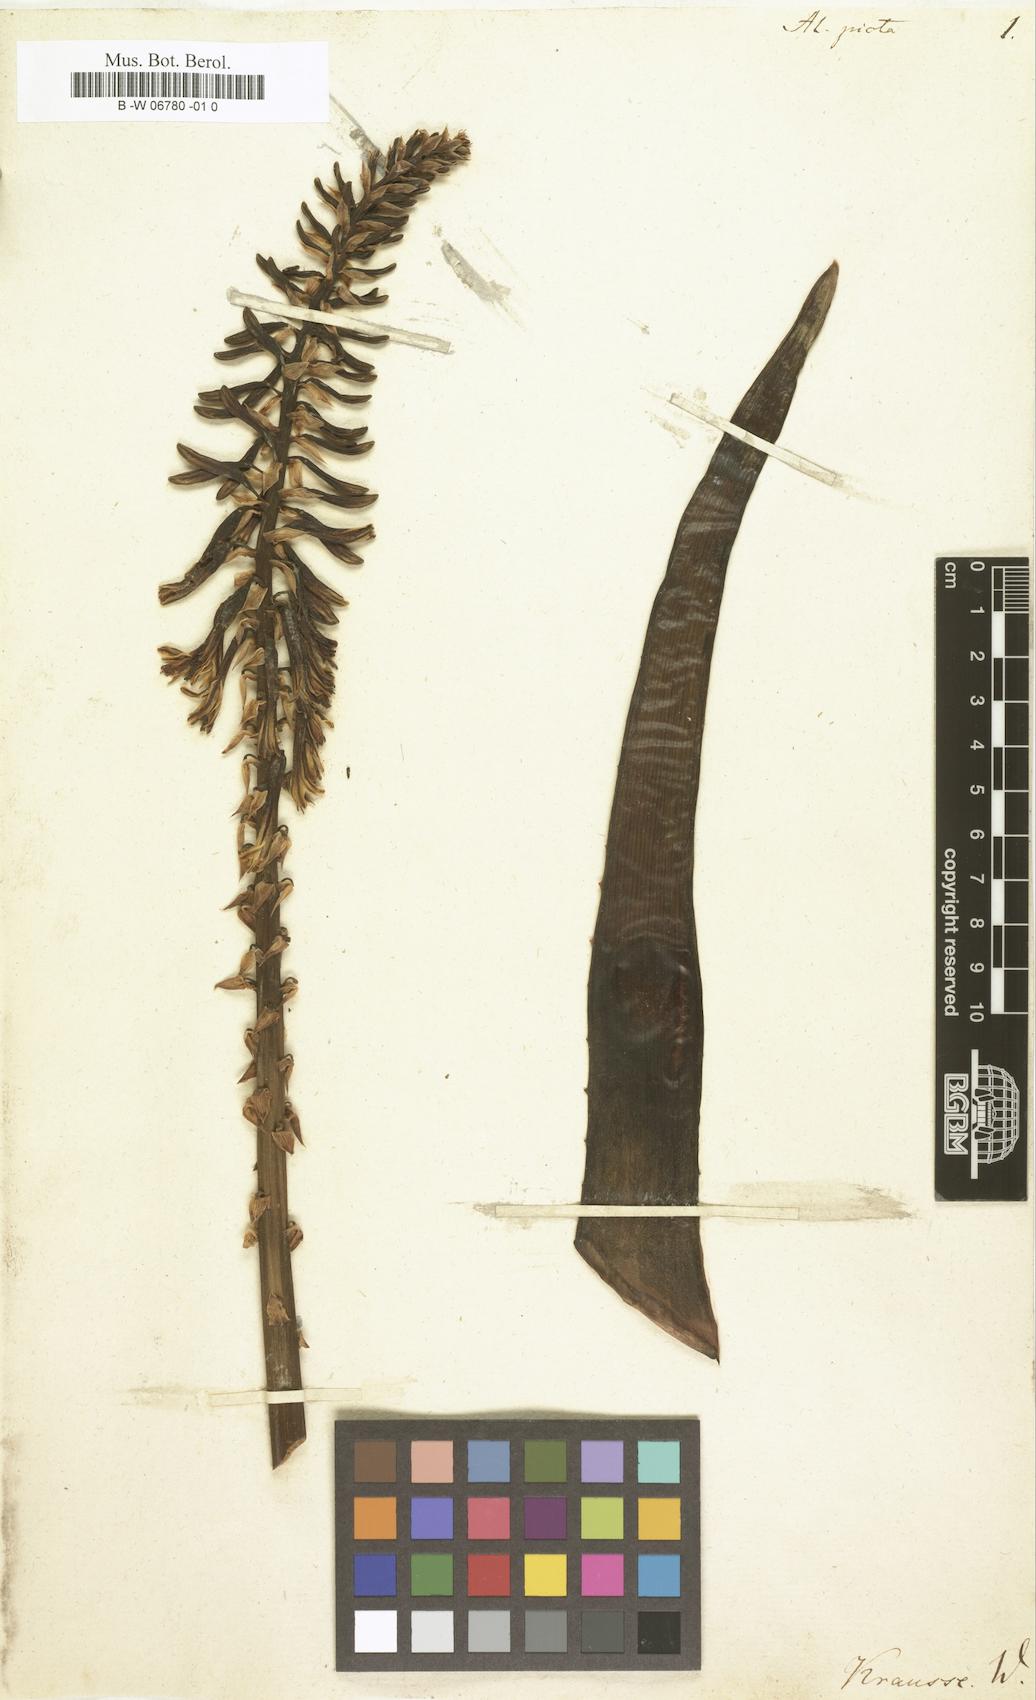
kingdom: Plantae
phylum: Tracheophyta
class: Liliopsida
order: Asparagales
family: Asphodelaceae
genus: Aloe
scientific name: Aloe microstigma
